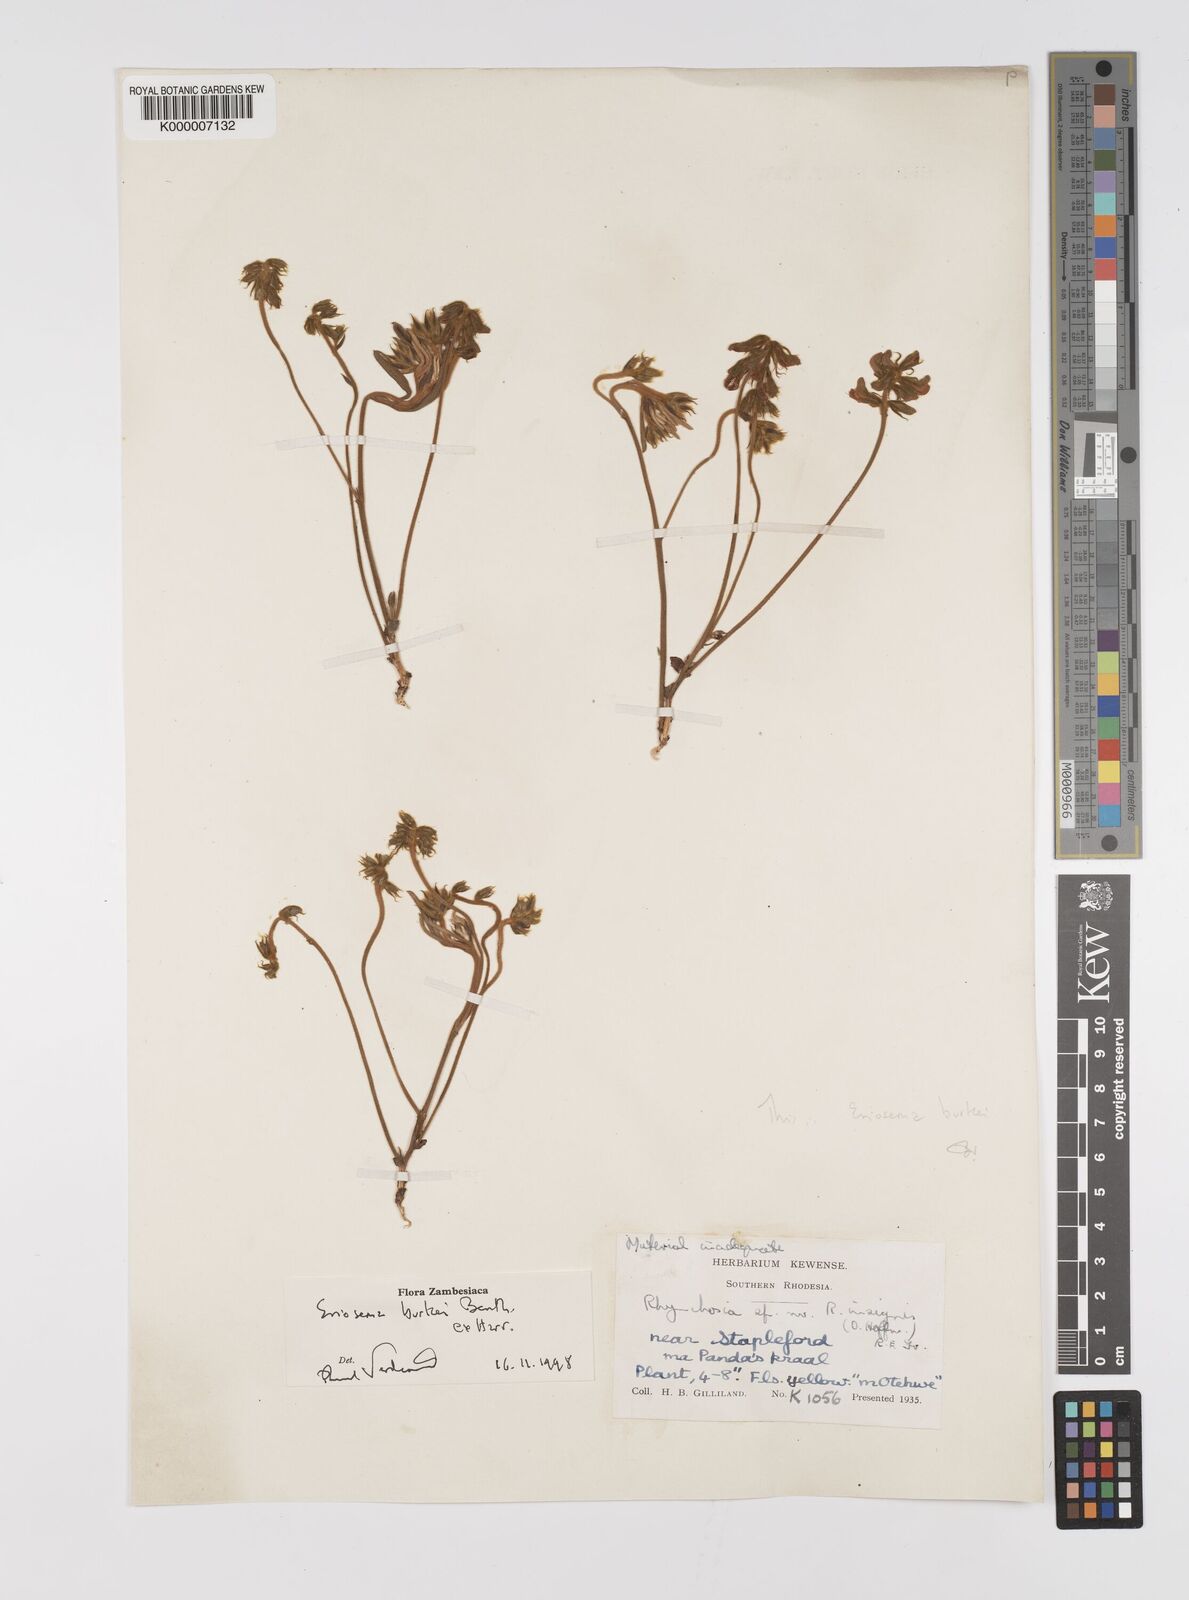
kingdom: Plantae
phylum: Tracheophyta
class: Magnoliopsida
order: Fabales
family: Fabaceae
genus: Eriosema
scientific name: Eriosema burkei
